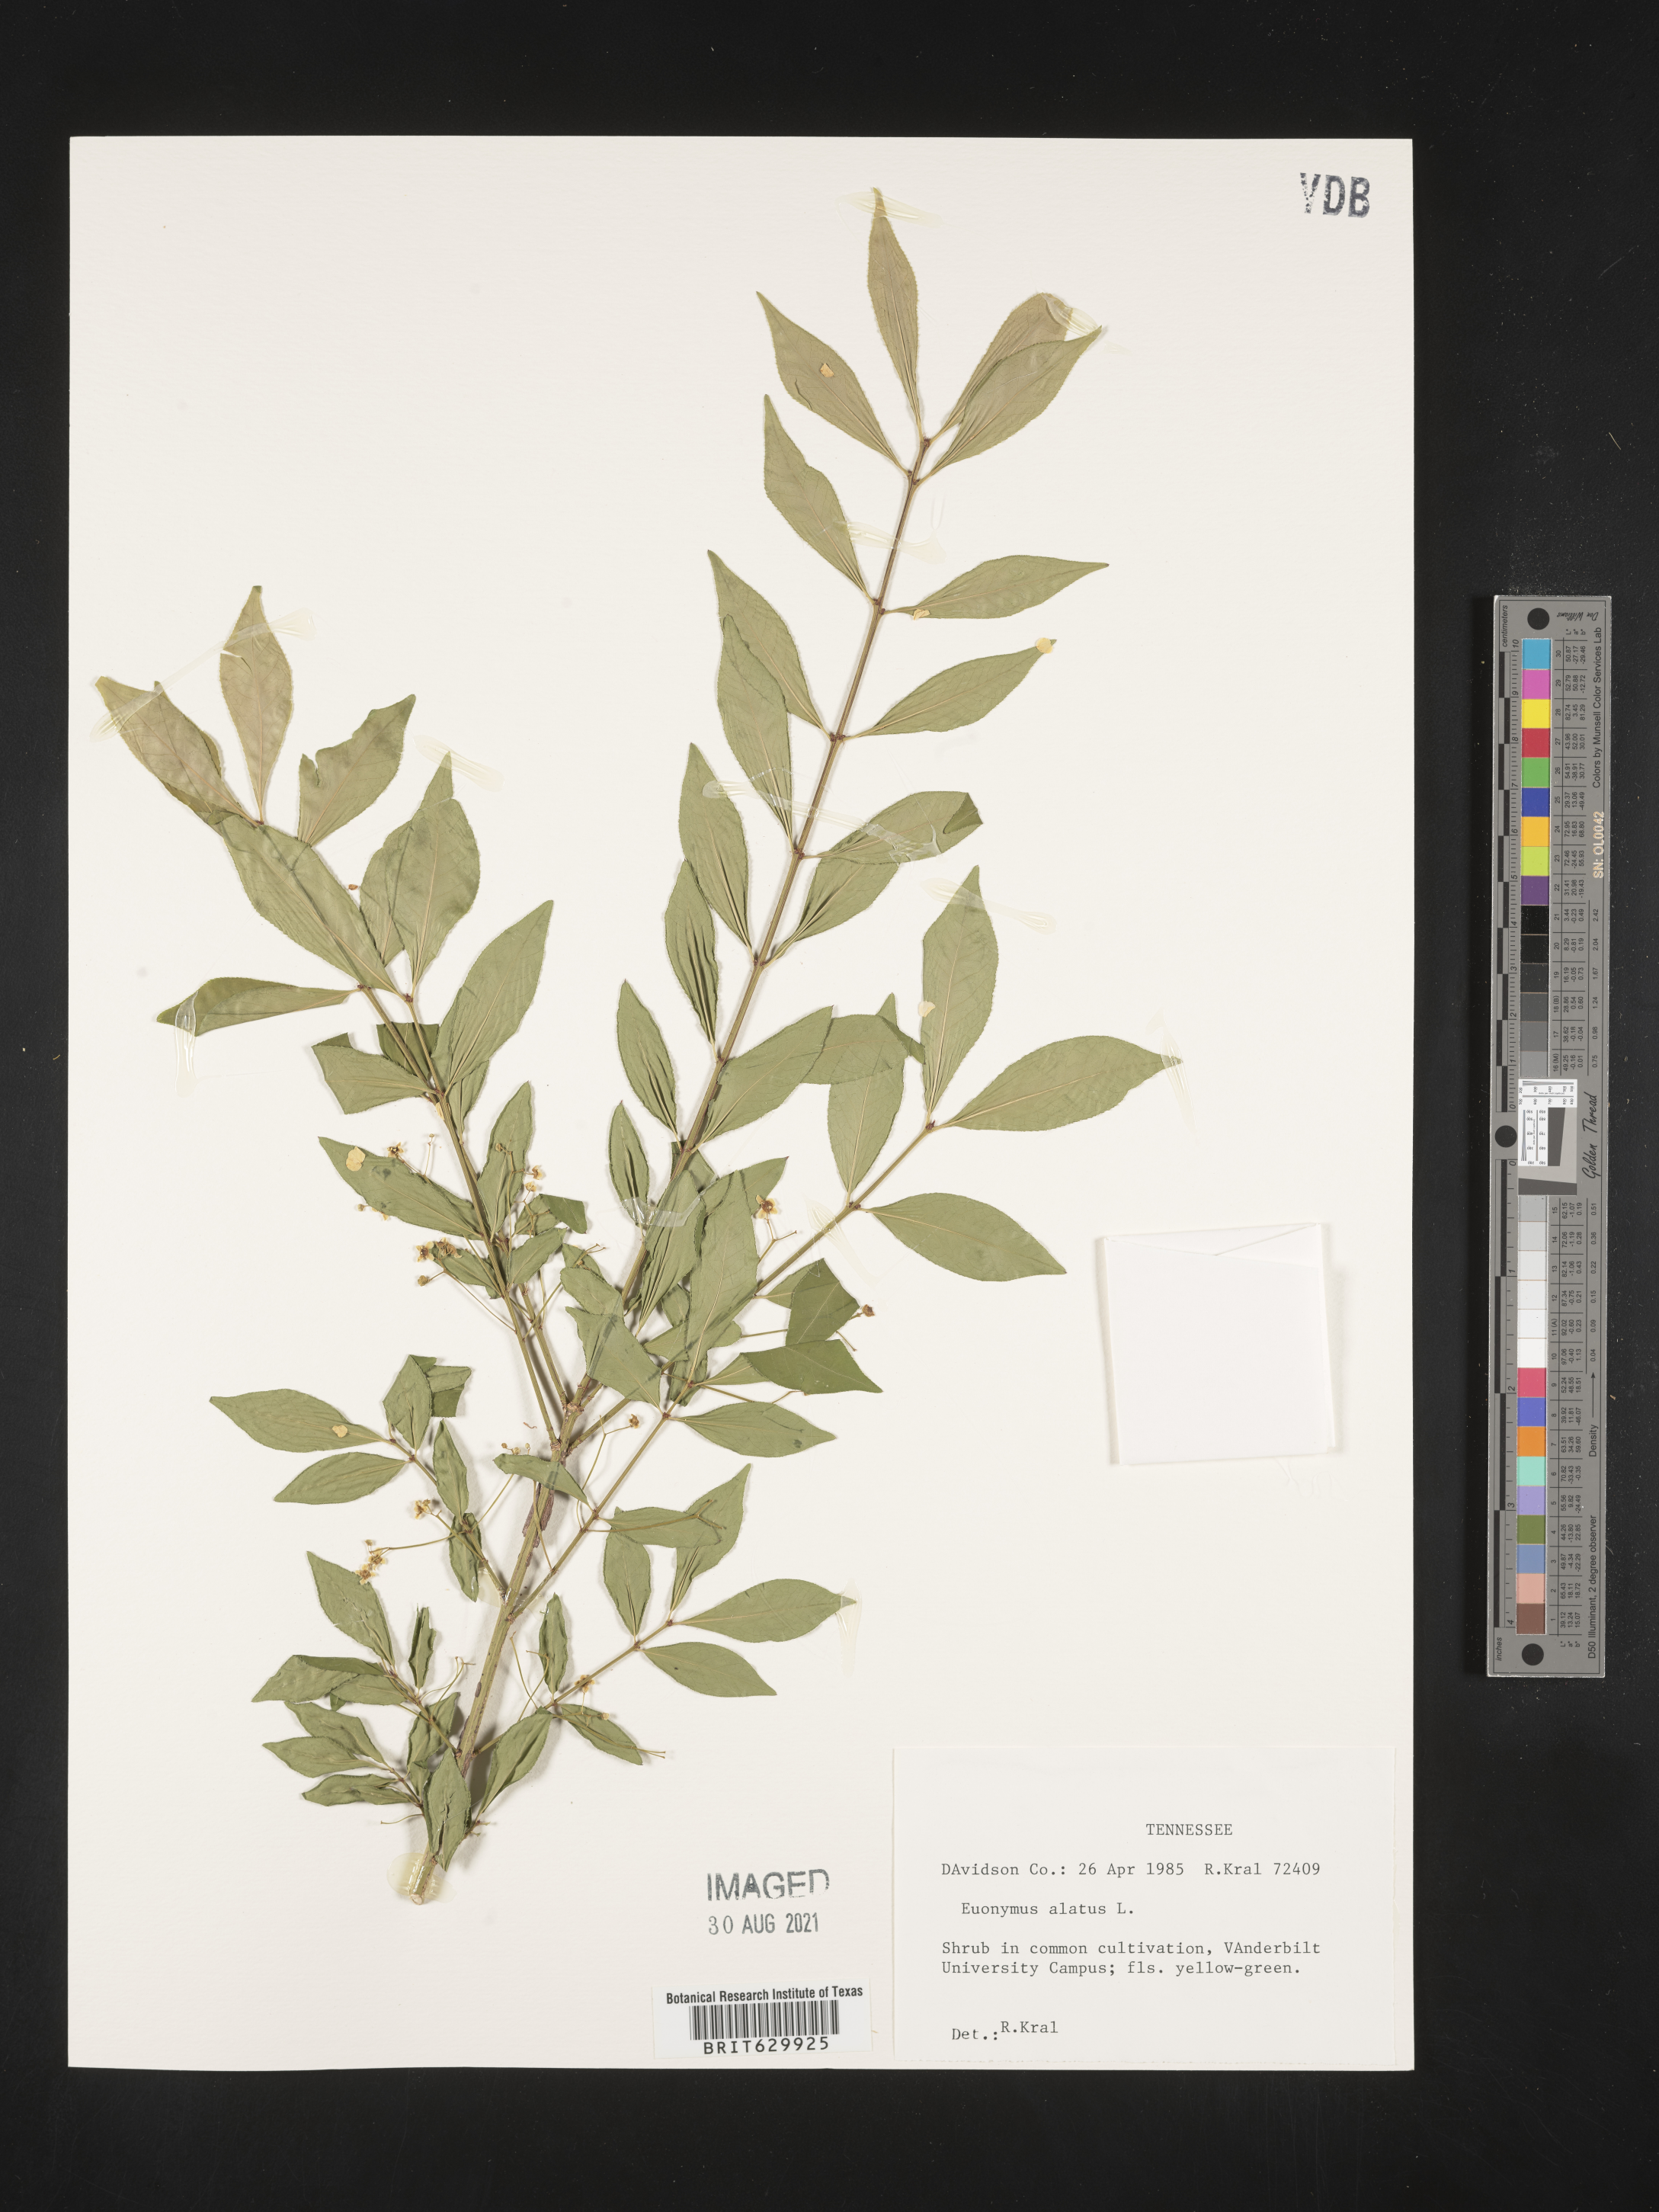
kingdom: Plantae
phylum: Tracheophyta
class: Magnoliopsida
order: Celastrales
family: Celastraceae
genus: Euonymus
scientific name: Euonymus alatus
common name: Winged euonymus
